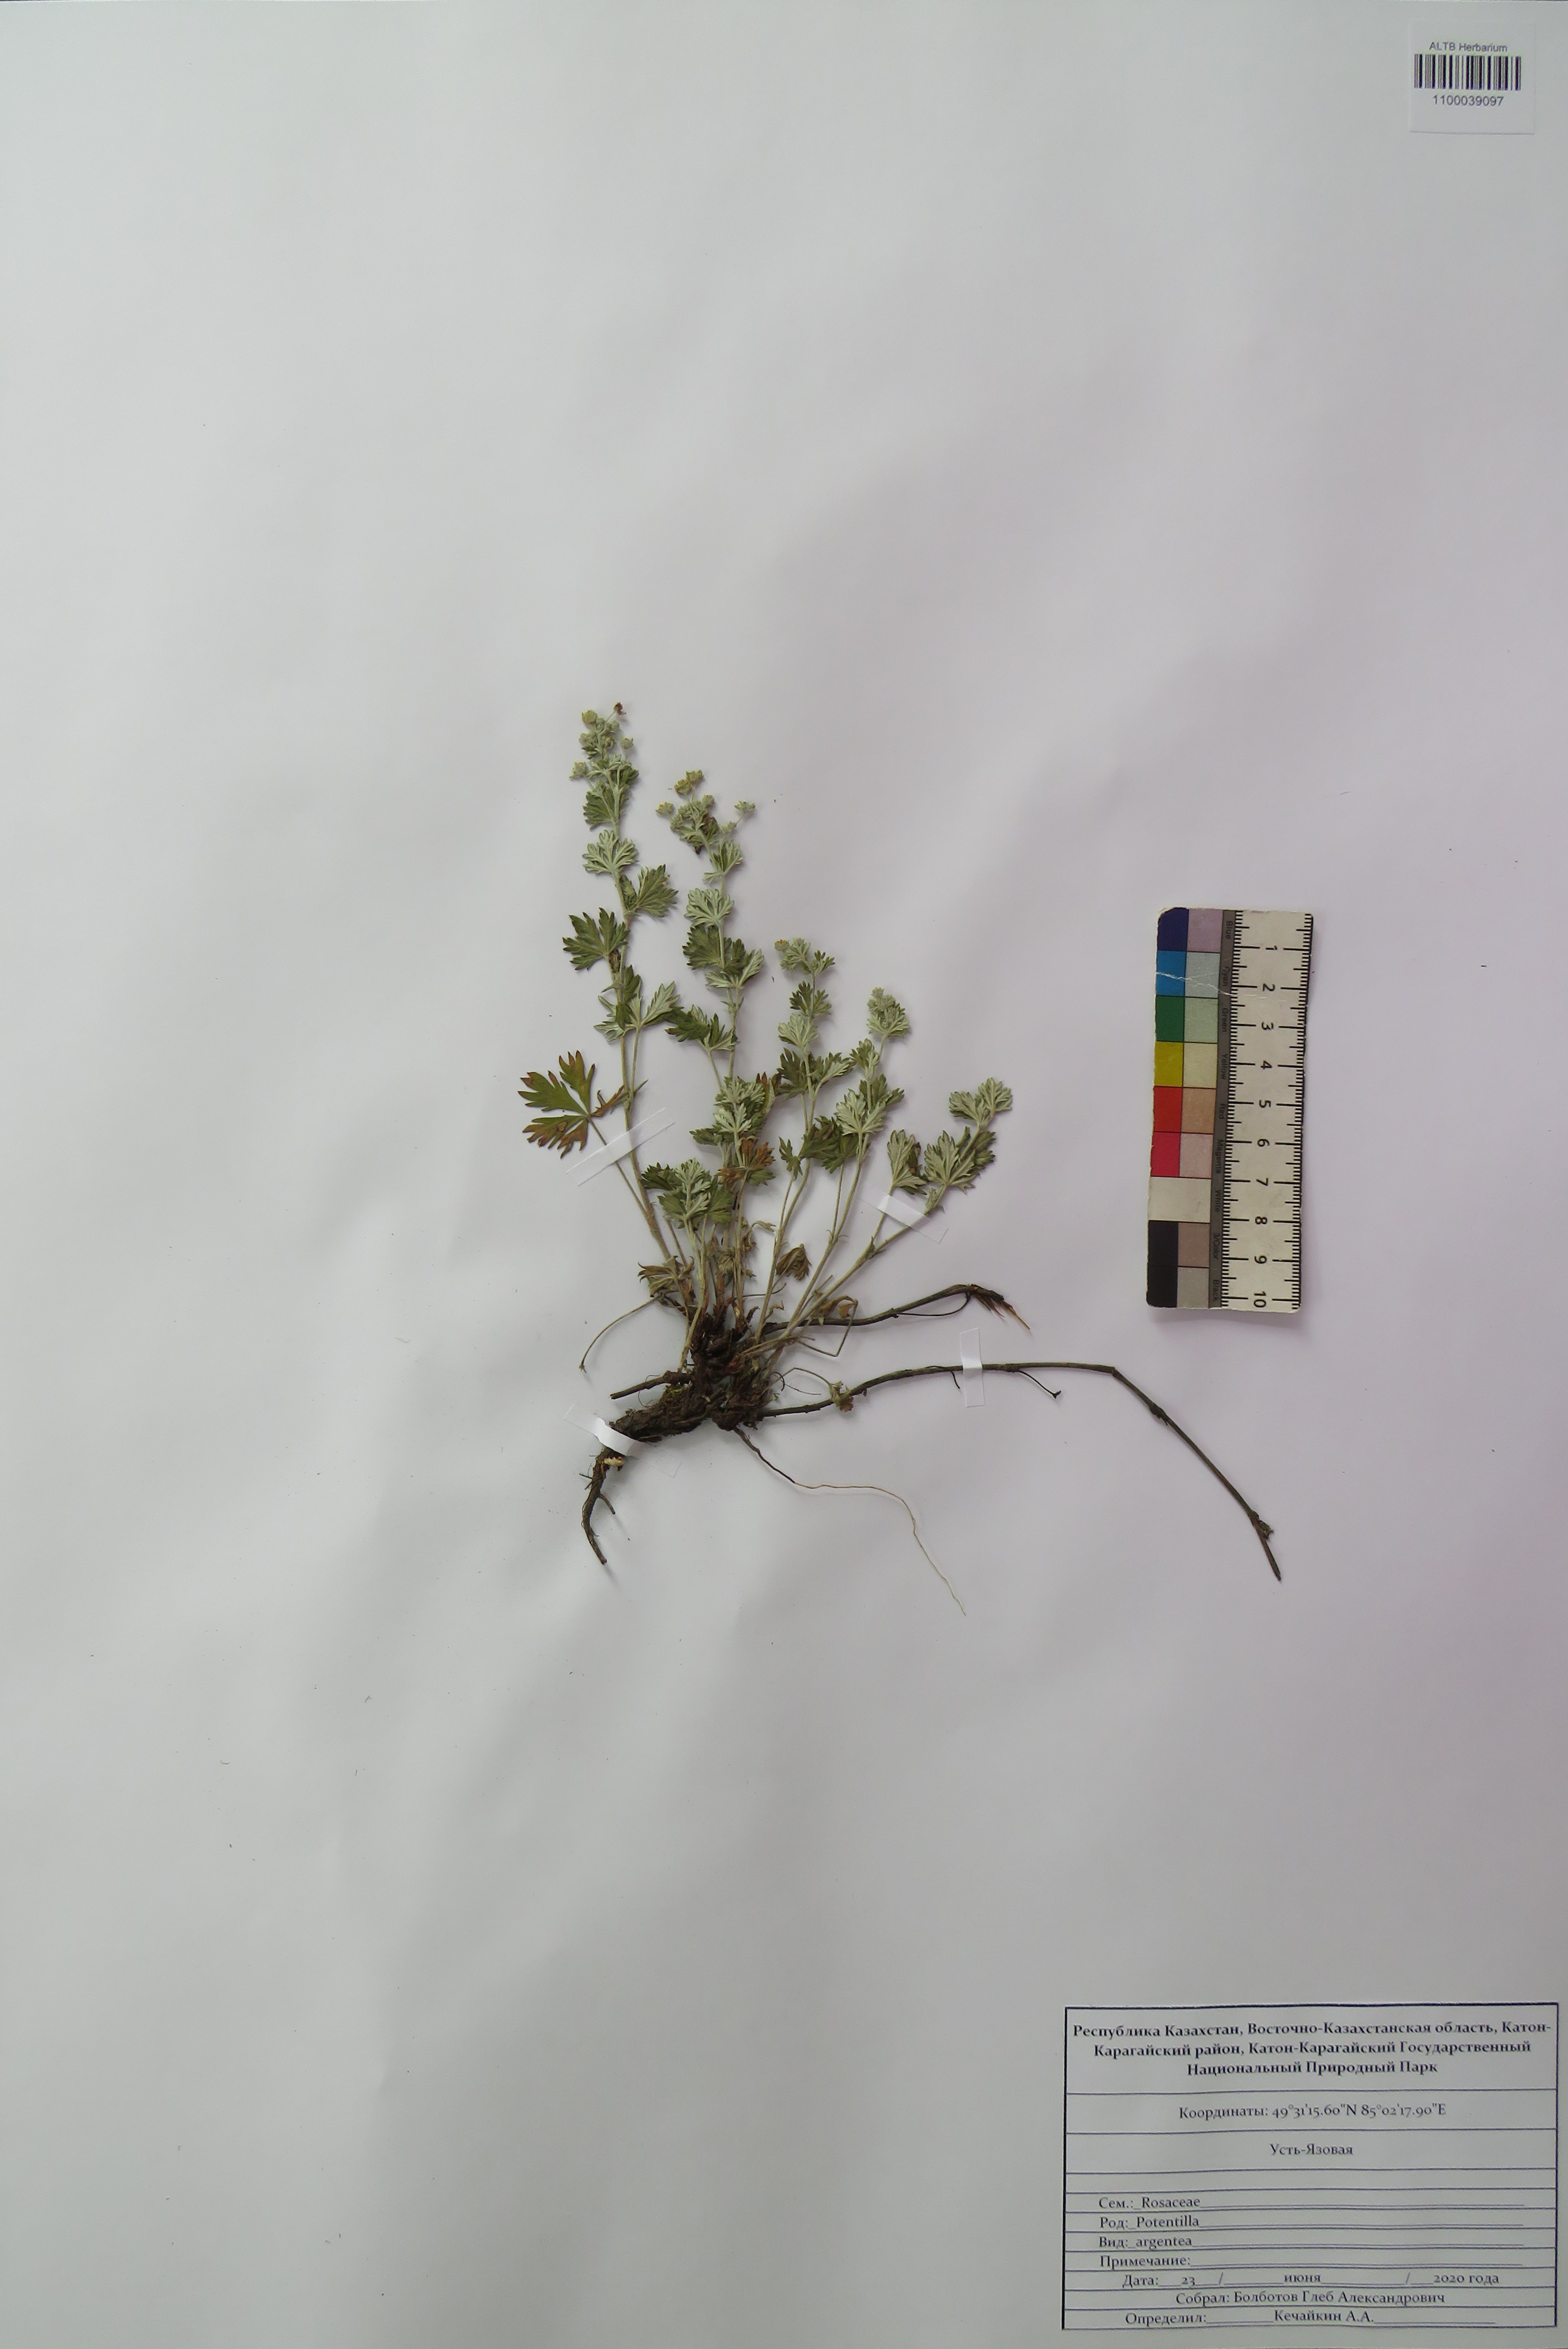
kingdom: Plantae
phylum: Tracheophyta
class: Magnoliopsida
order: Rosales
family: Rosaceae
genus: Potentilla
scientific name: Potentilla argentea
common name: Hoary cinquefoil
